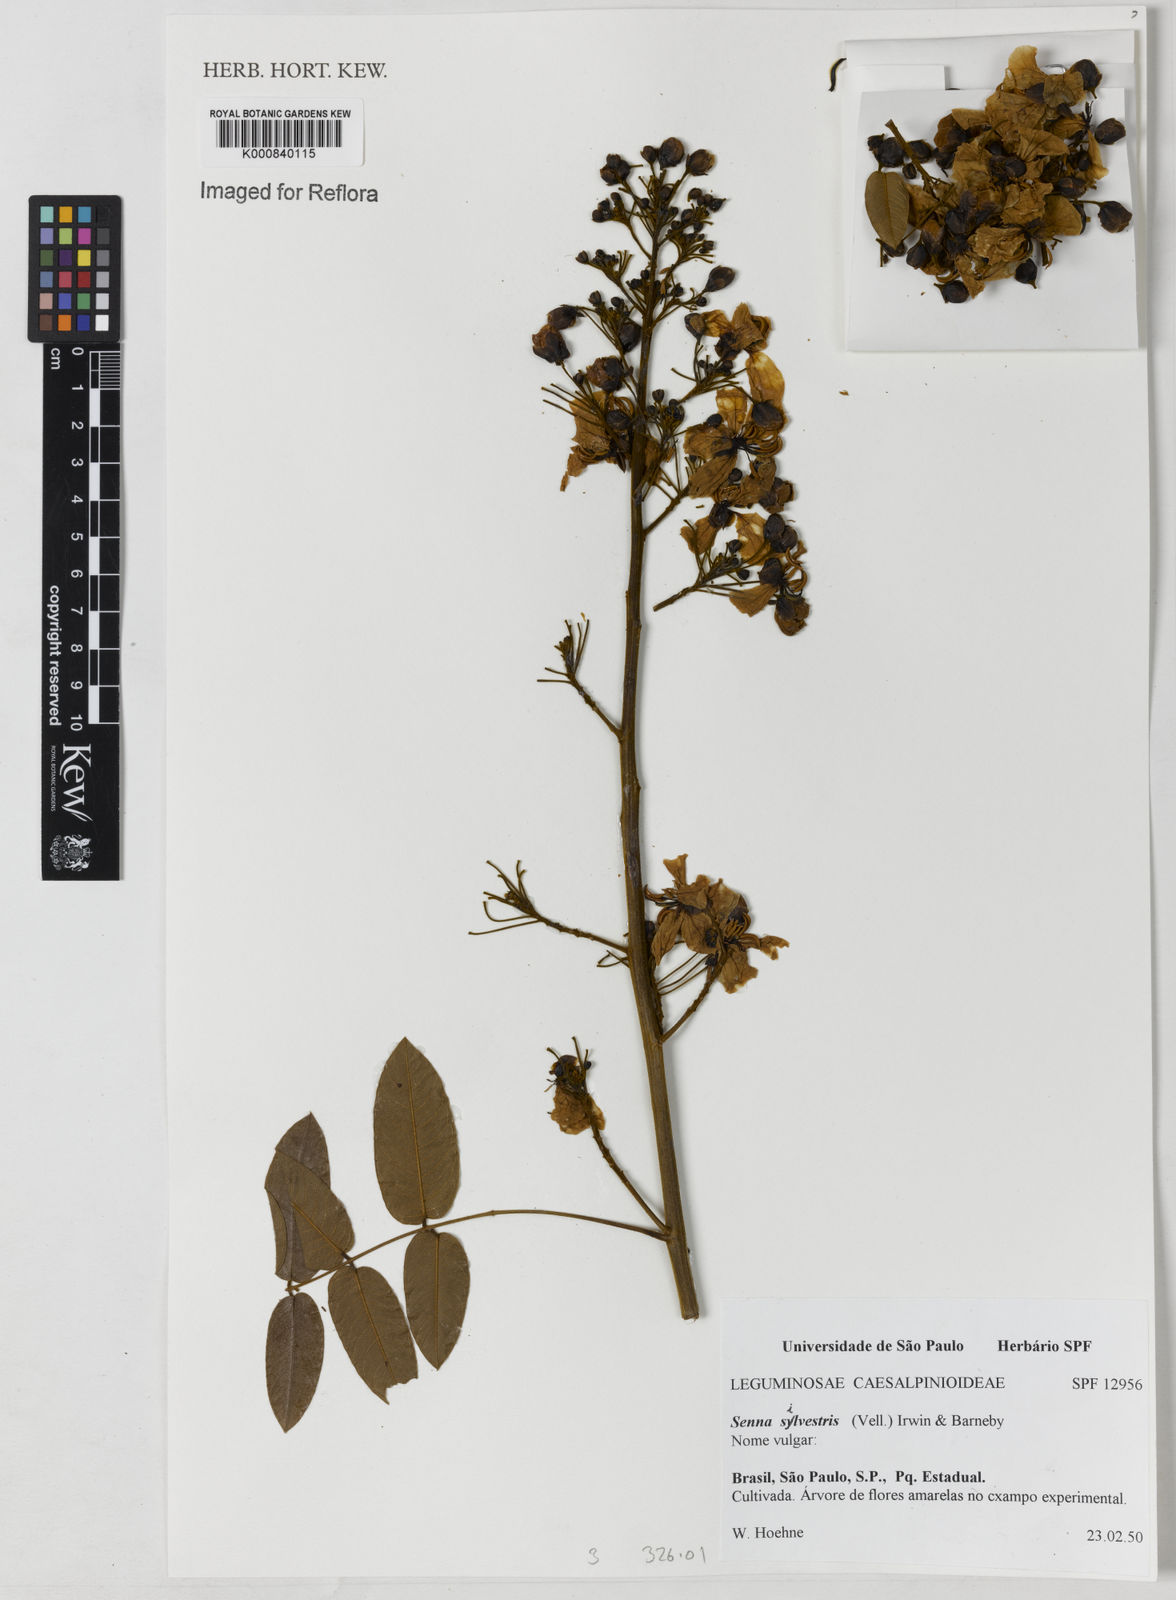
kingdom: Plantae
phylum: Tracheophyta
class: Magnoliopsida
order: Fabales
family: Fabaceae
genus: Senna
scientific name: Senna silvestris
